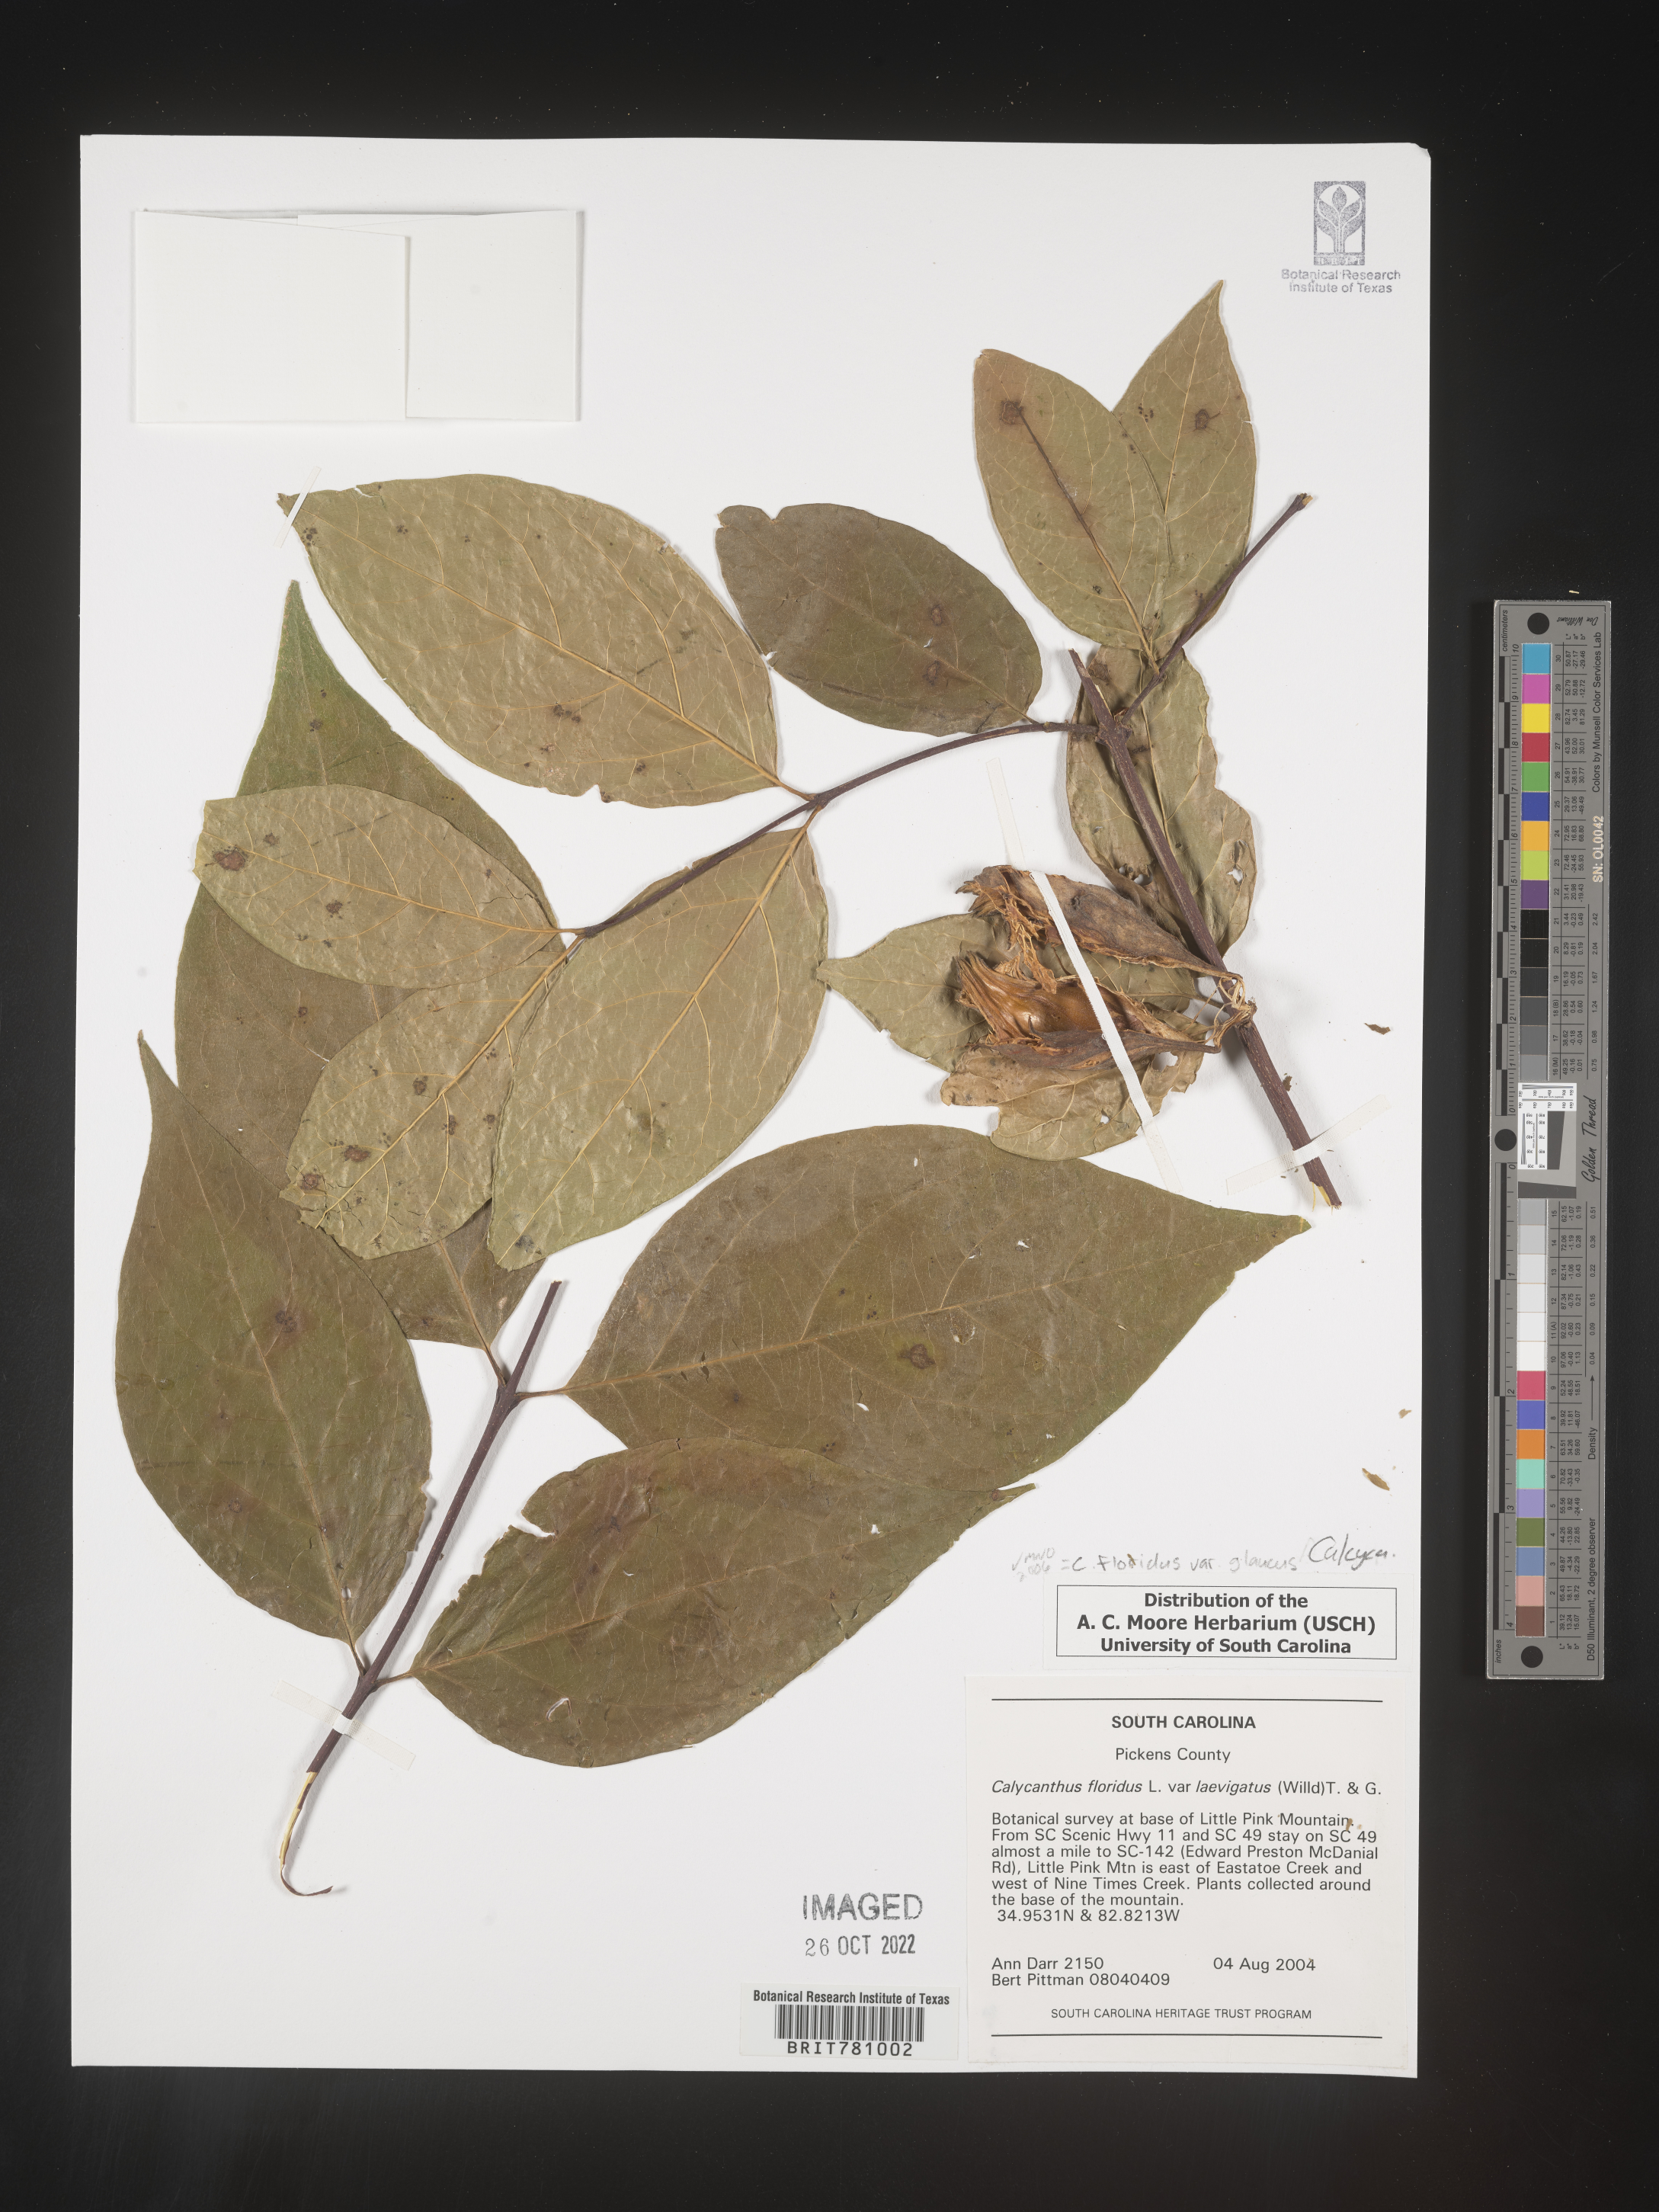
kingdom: Plantae
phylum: Tracheophyta
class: Magnoliopsida
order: Laurales
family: Calycanthaceae
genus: Calycanthus
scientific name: Calycanthus floridus
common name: Carolina-allspice
